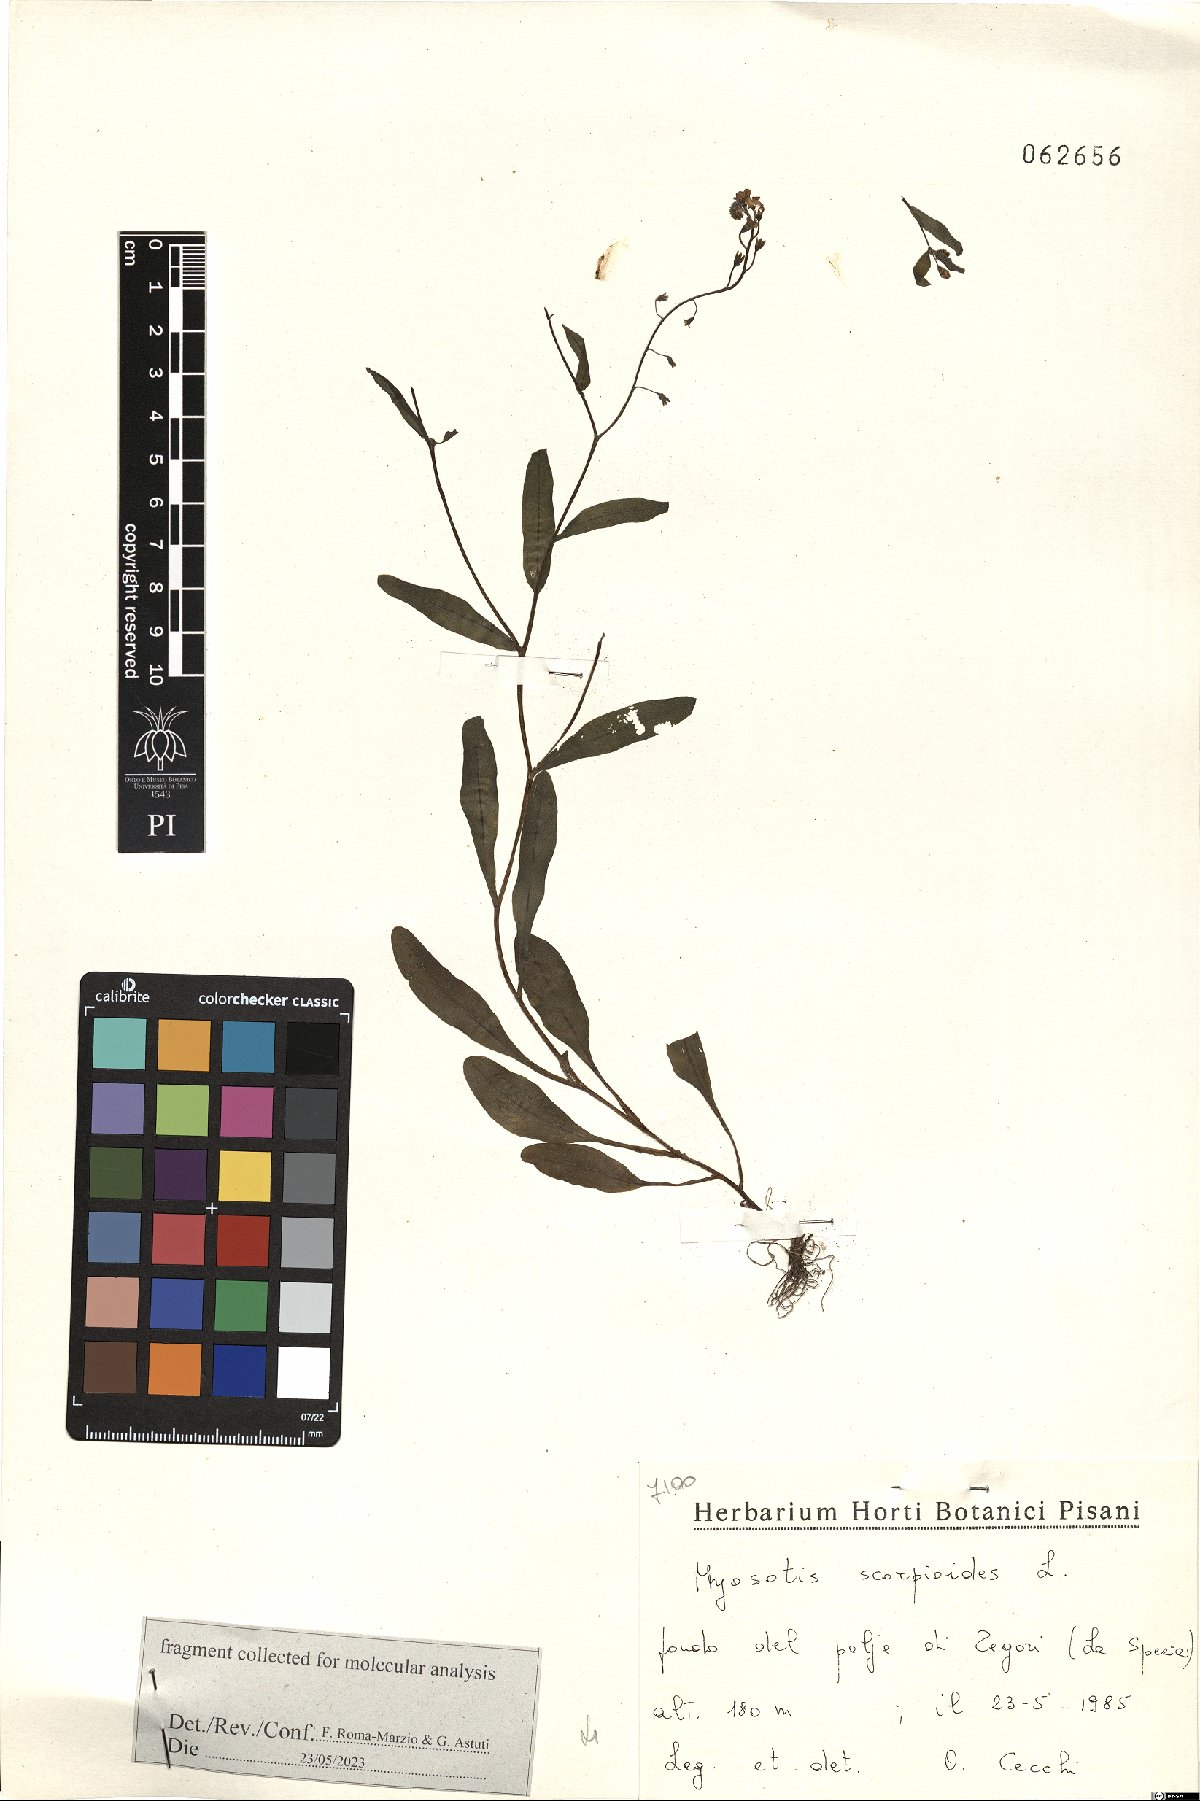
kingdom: Plantae
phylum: Tracheophyta
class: Magnoliopsida
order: Boraginales
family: Boraginaceae
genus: Myosotis
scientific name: Myosotis scorpioides
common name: Water forget-me-not
